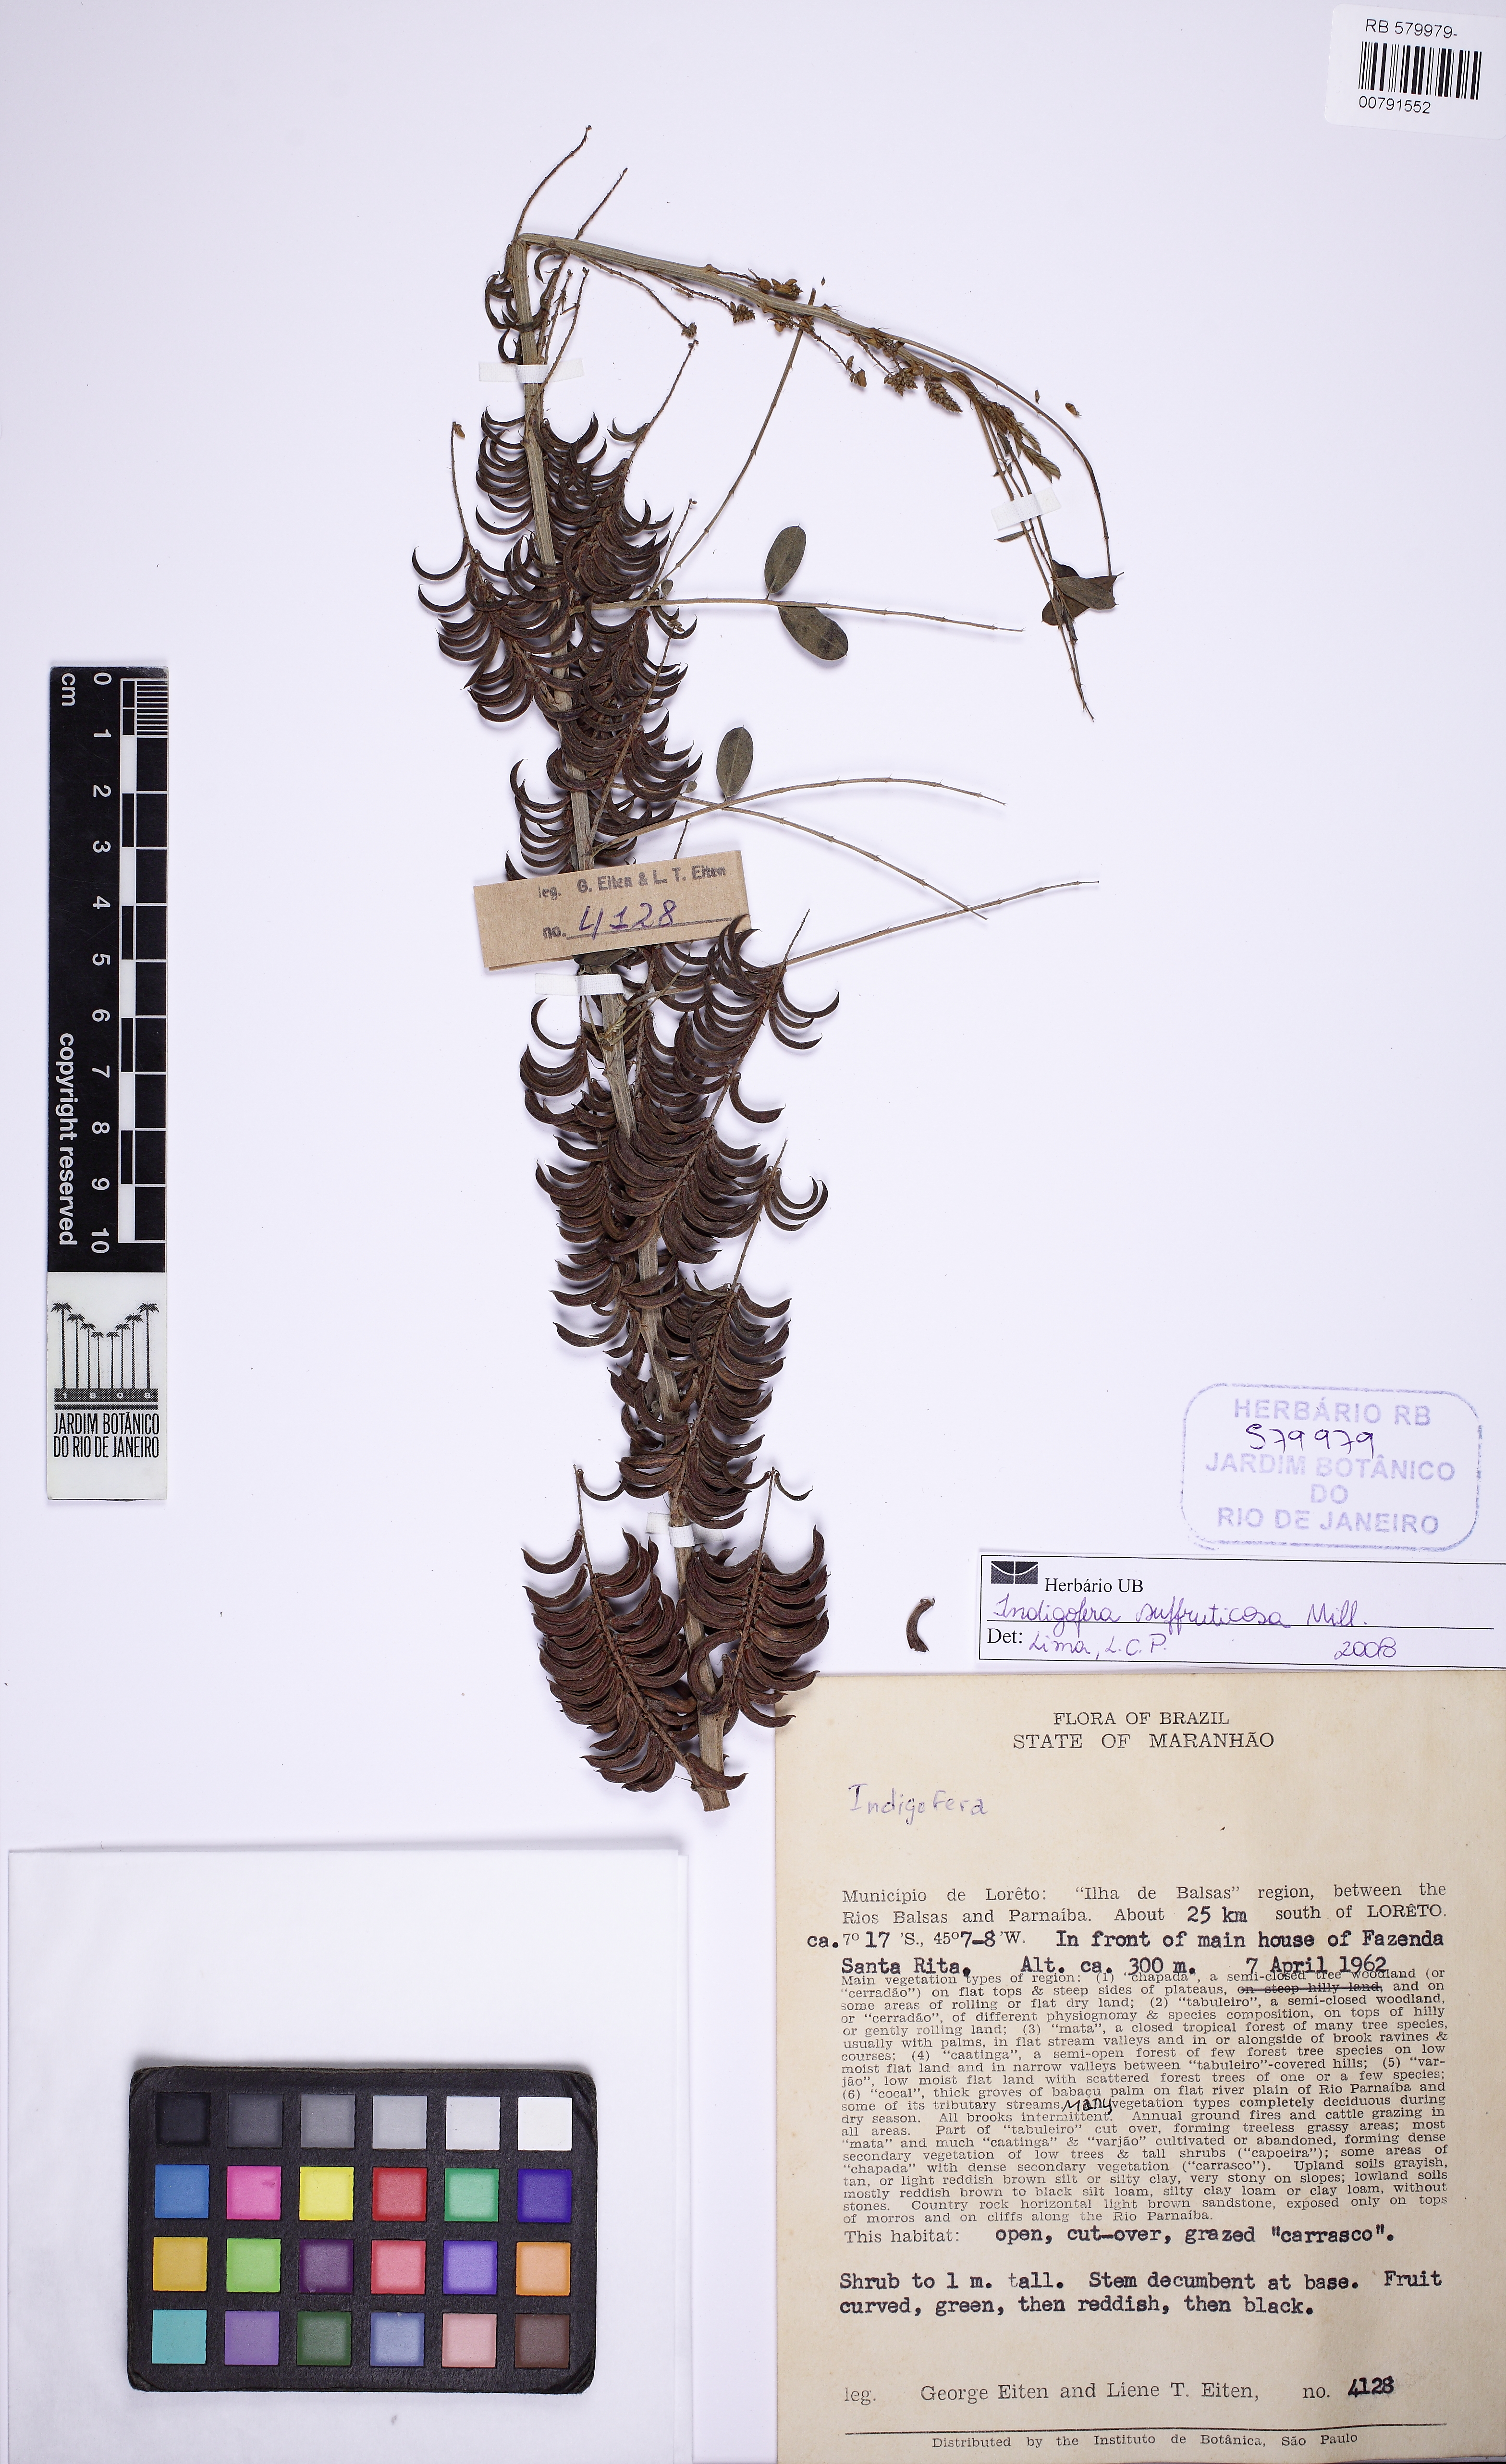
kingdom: Plantae
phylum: Tracheophyta
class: Magnoliopsida
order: Fabales
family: Fabaceae
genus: Indigofera
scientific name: Indigofera suffruticosa
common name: Anil de pasto
